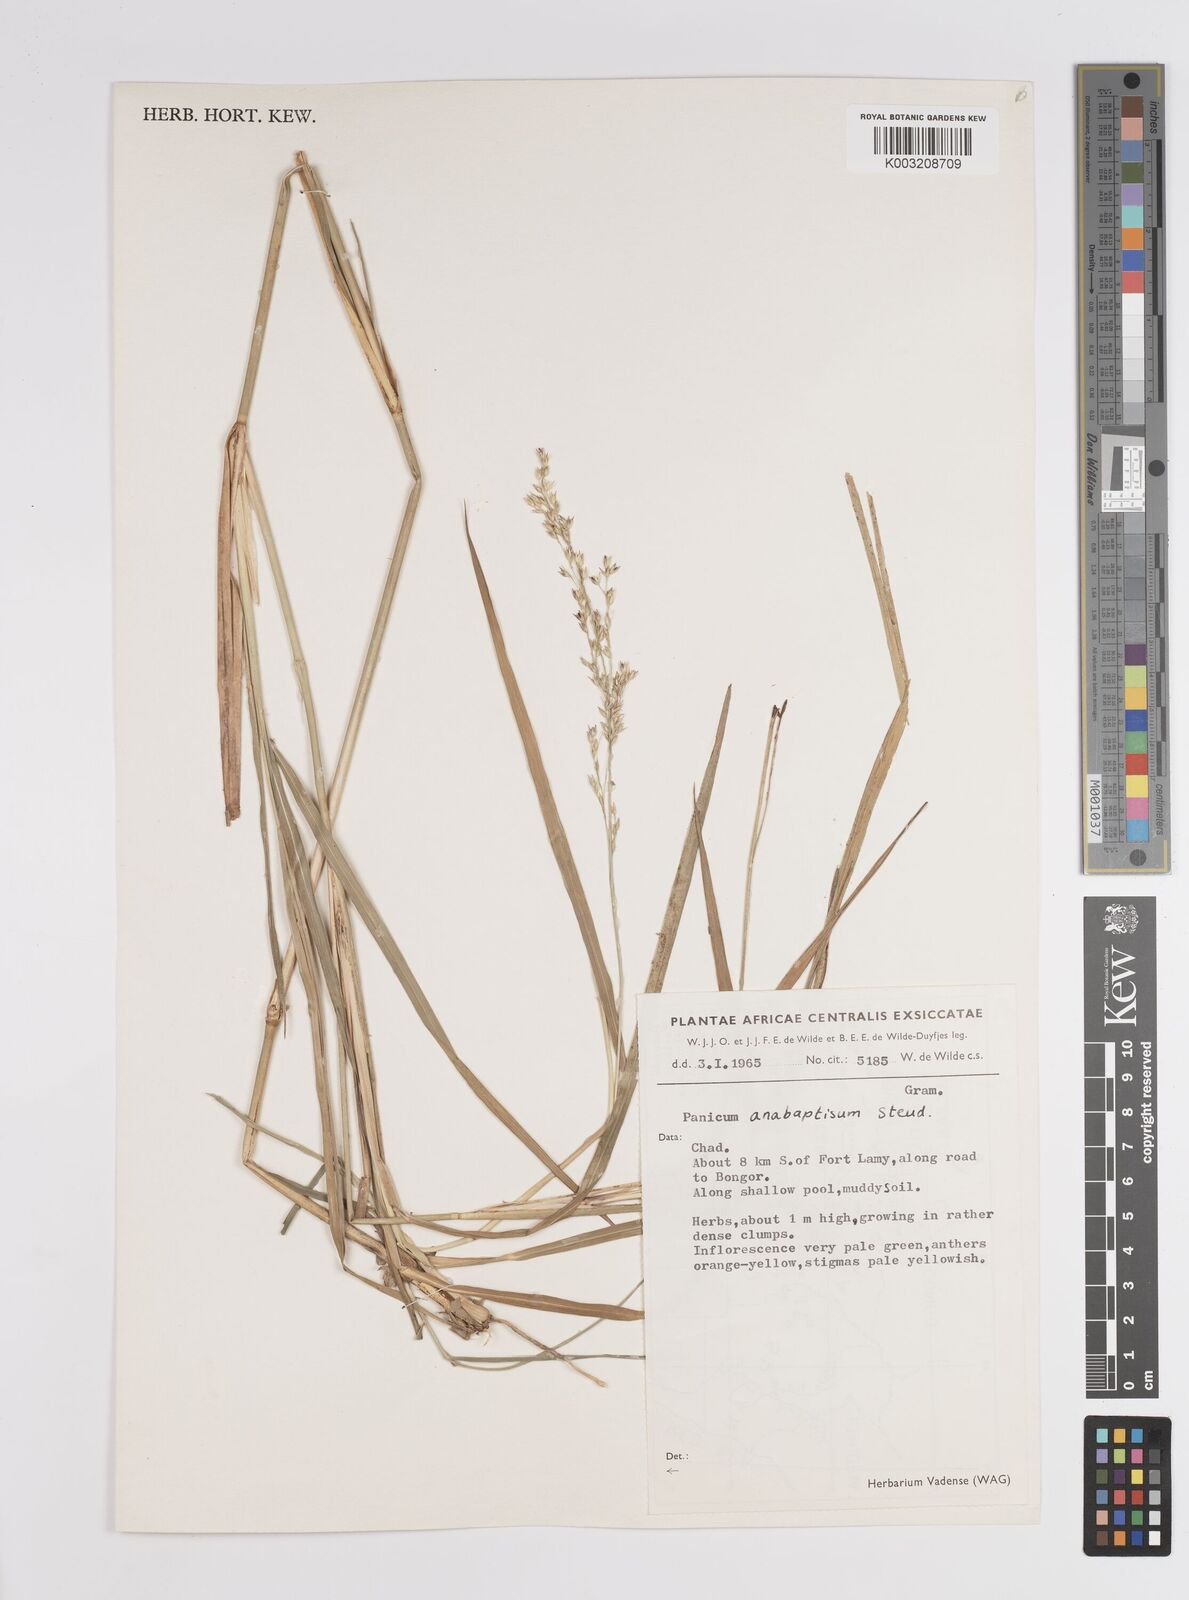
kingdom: Plantae
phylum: Tracheophyta
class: Liliopsida
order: Poales
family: Poaceae
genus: Panicum
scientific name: Panicum anabaptistum
